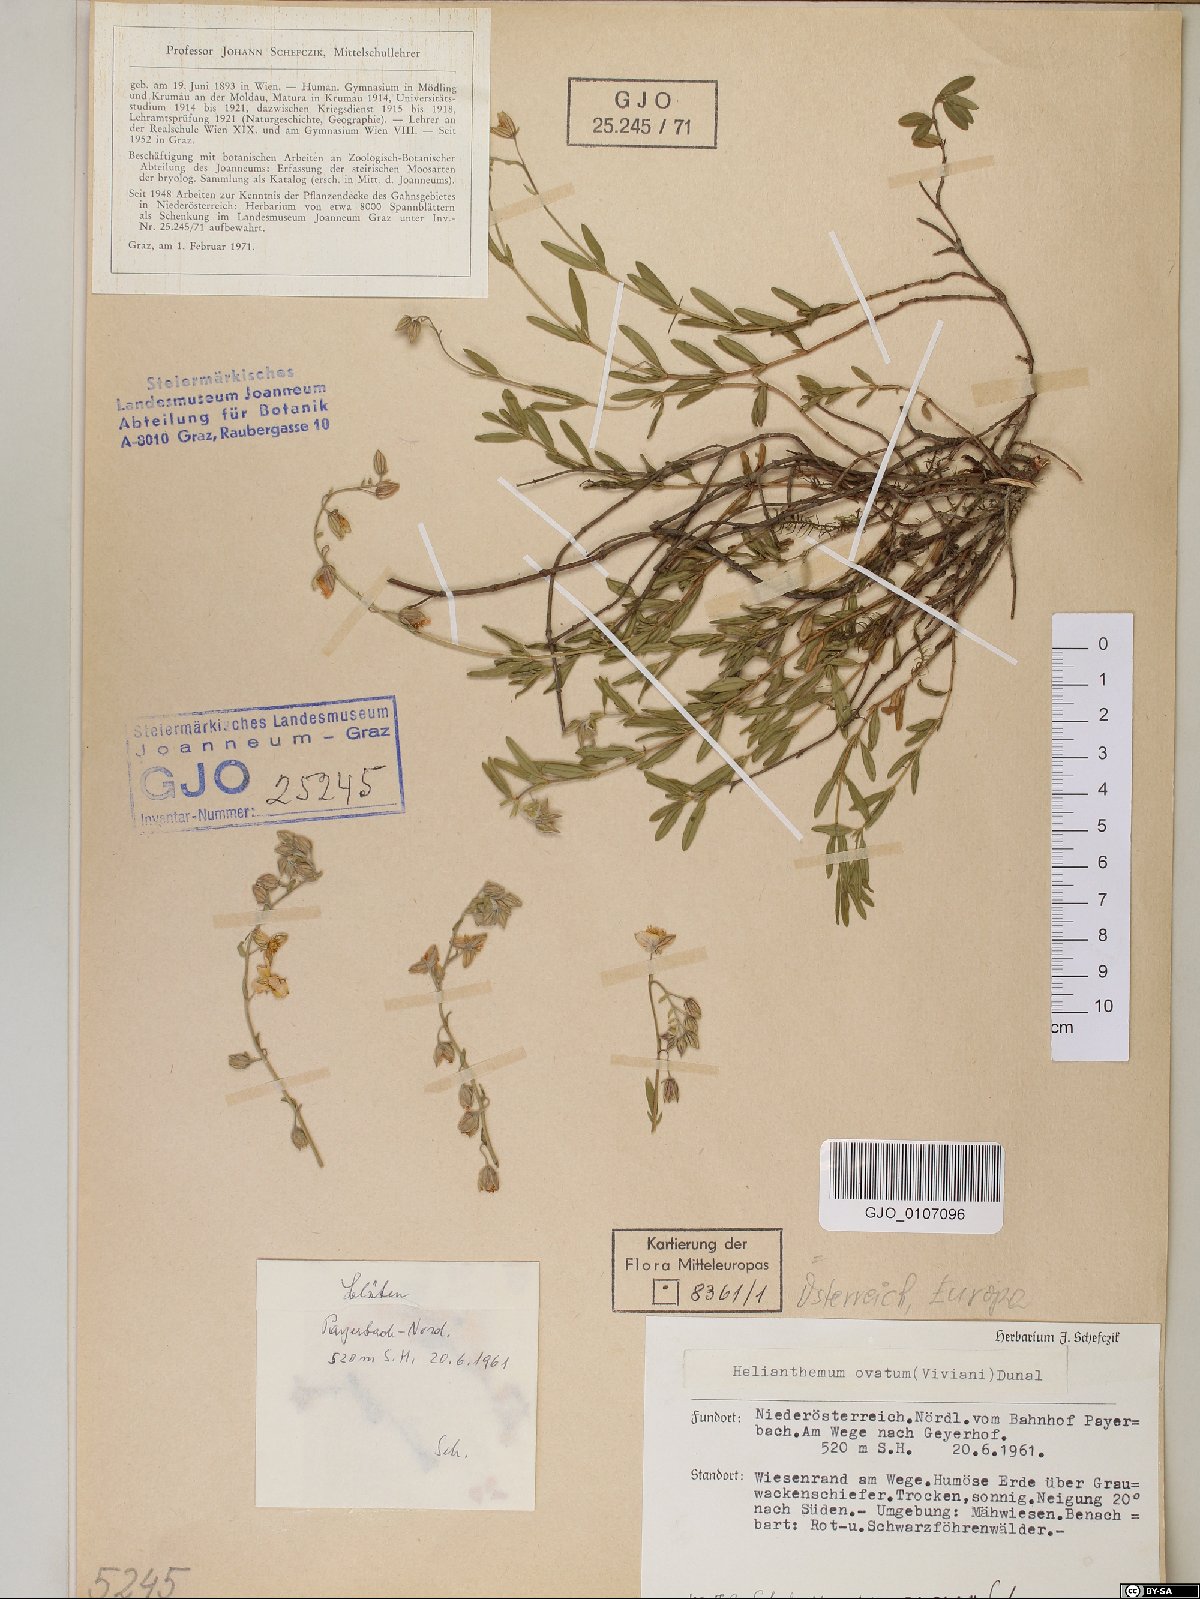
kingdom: Plantae
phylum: Tracheophyta
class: Magnoliopsida
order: Malvales
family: Cistaceae
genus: Helianthemum
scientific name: Helianthemum nummularium
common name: Common rock-rose
